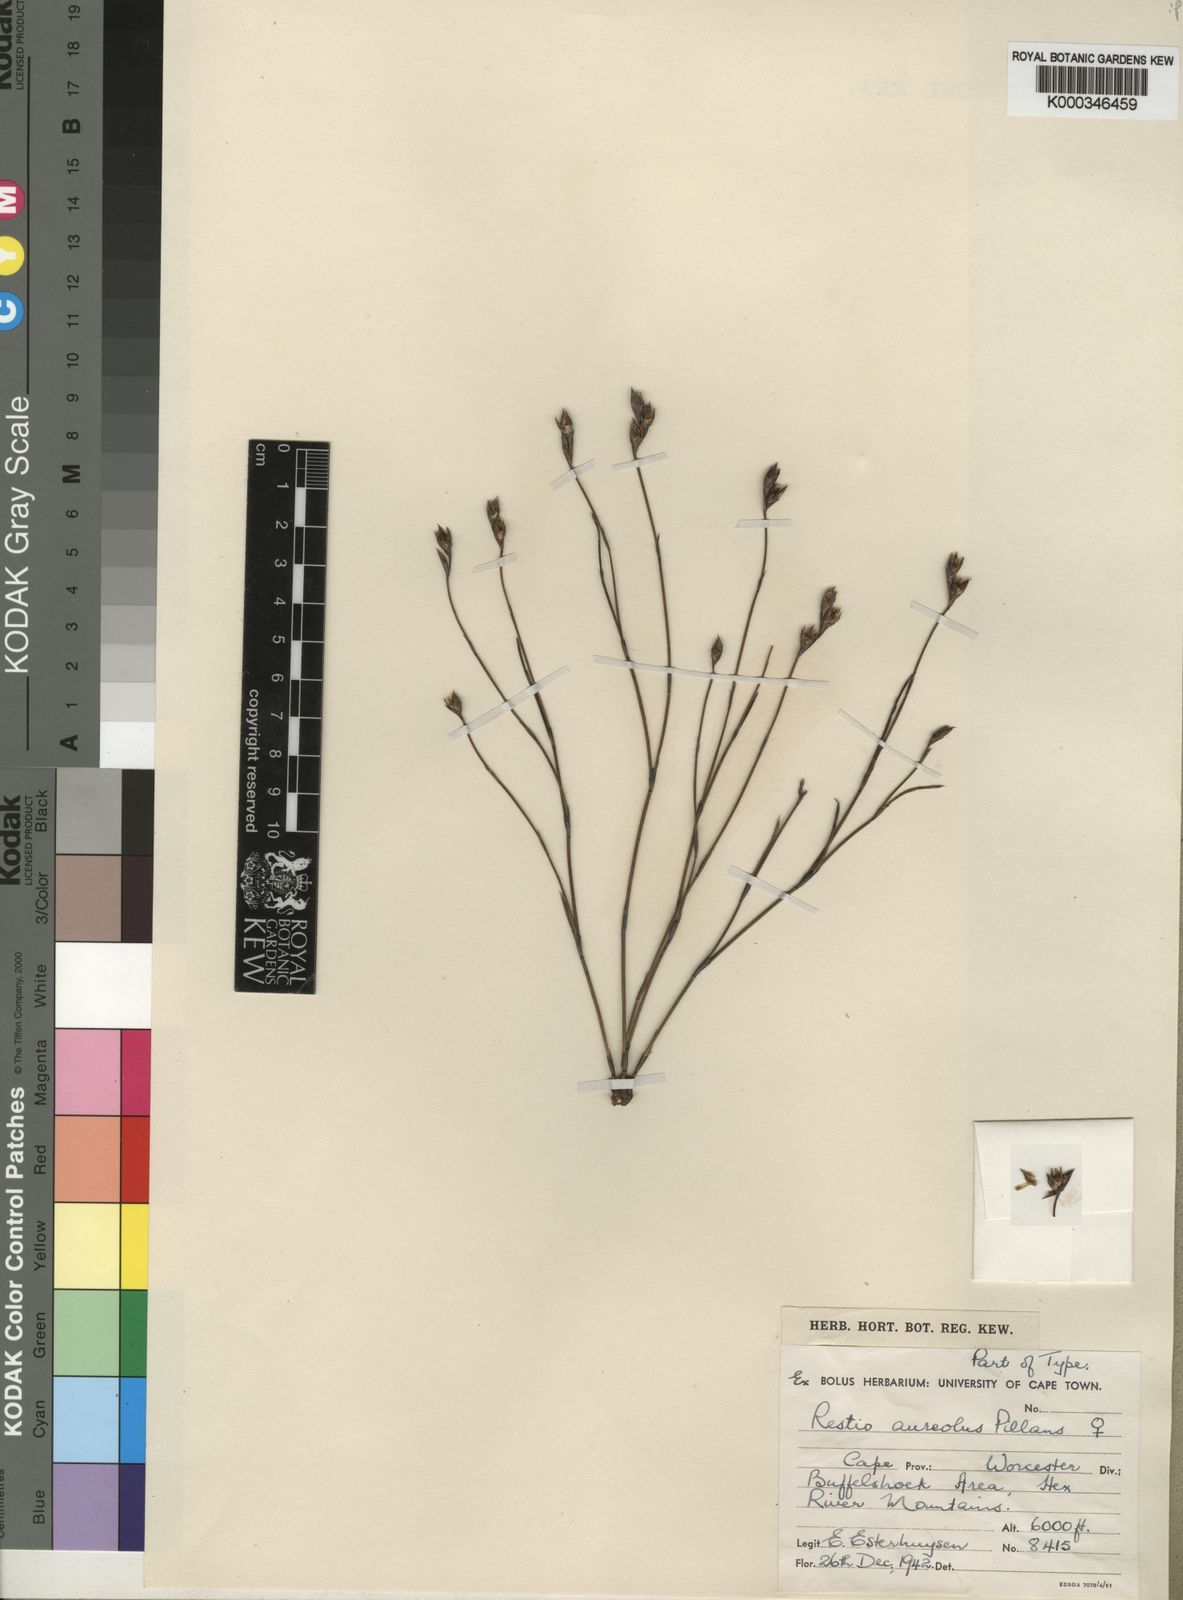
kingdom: Plantae
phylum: Tracheophyta
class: Liliopsida
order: Poales
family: Restionaceae
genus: Restio
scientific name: Restio aureolus
